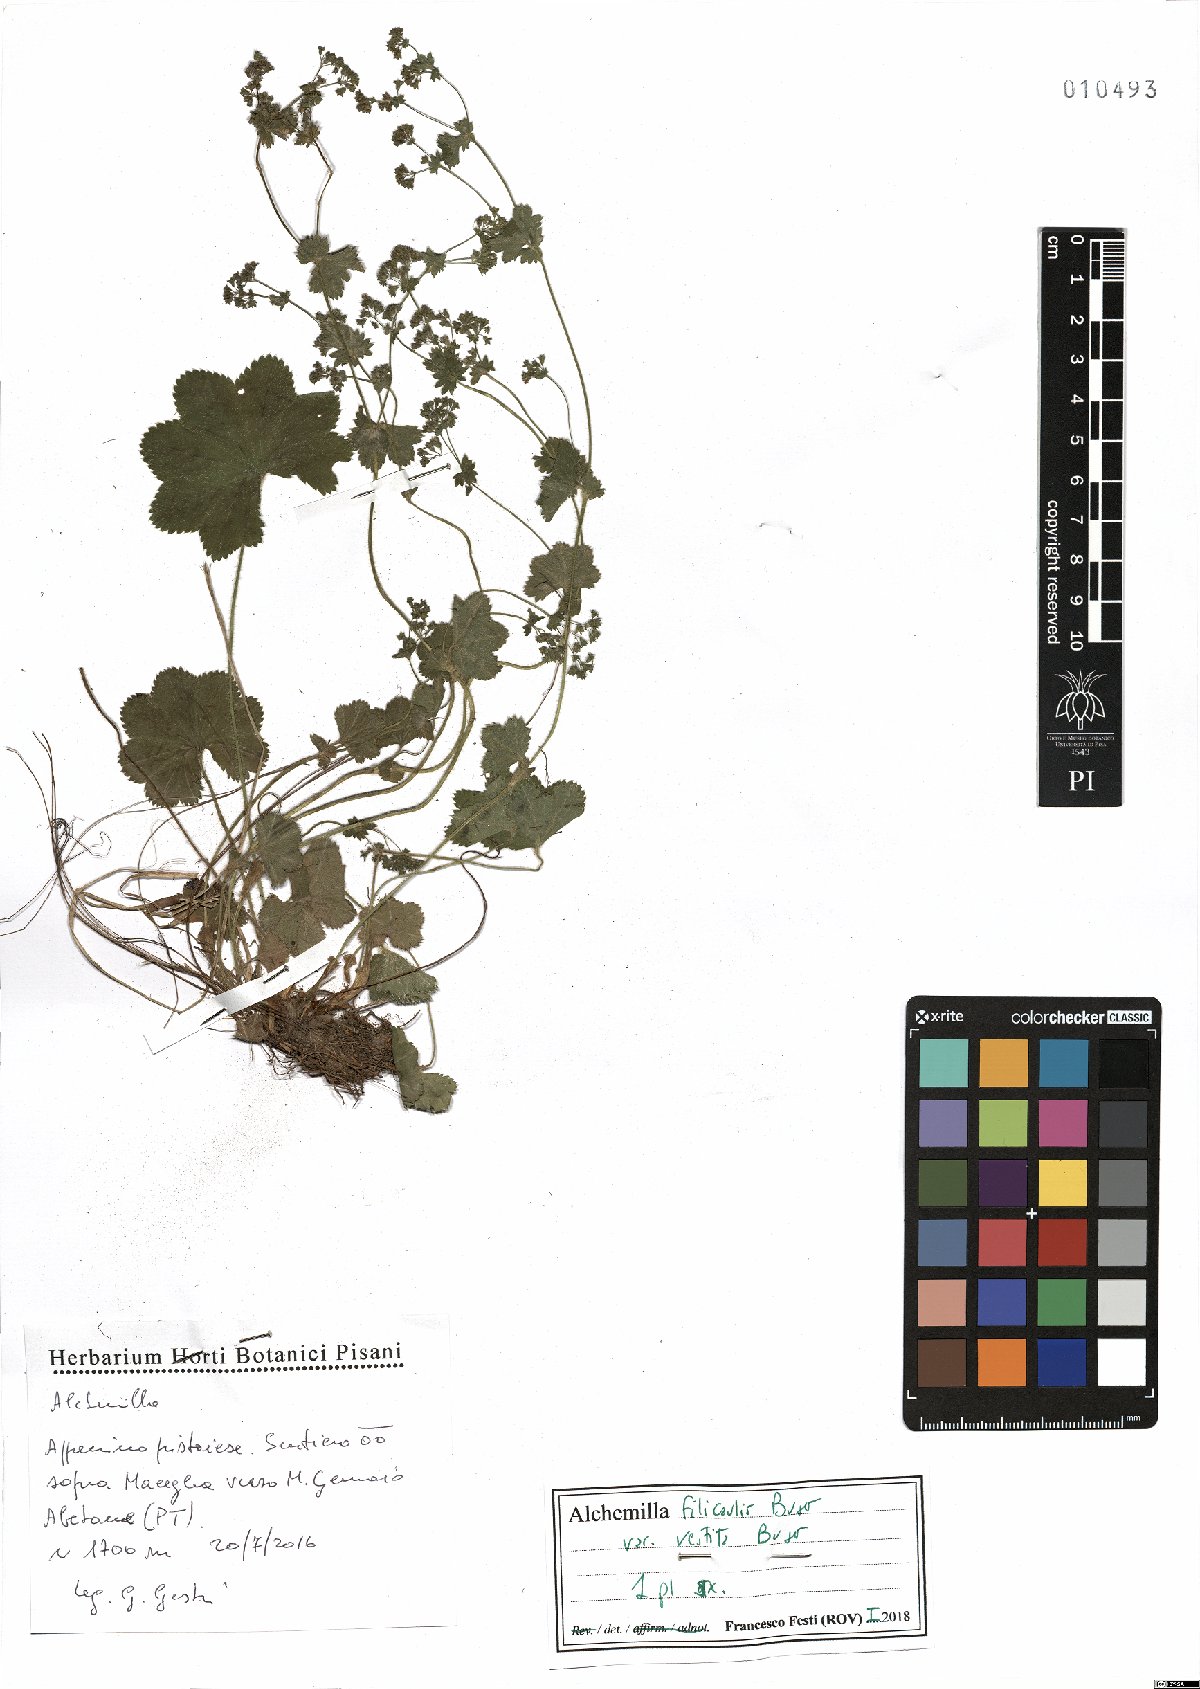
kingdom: Plantae
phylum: Tracheophyta
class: Magnoliopsida
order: Rosales
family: Rosaceae
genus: Alchemilla
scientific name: Alchemilla filicaulis
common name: Hairy lady's-mantle
